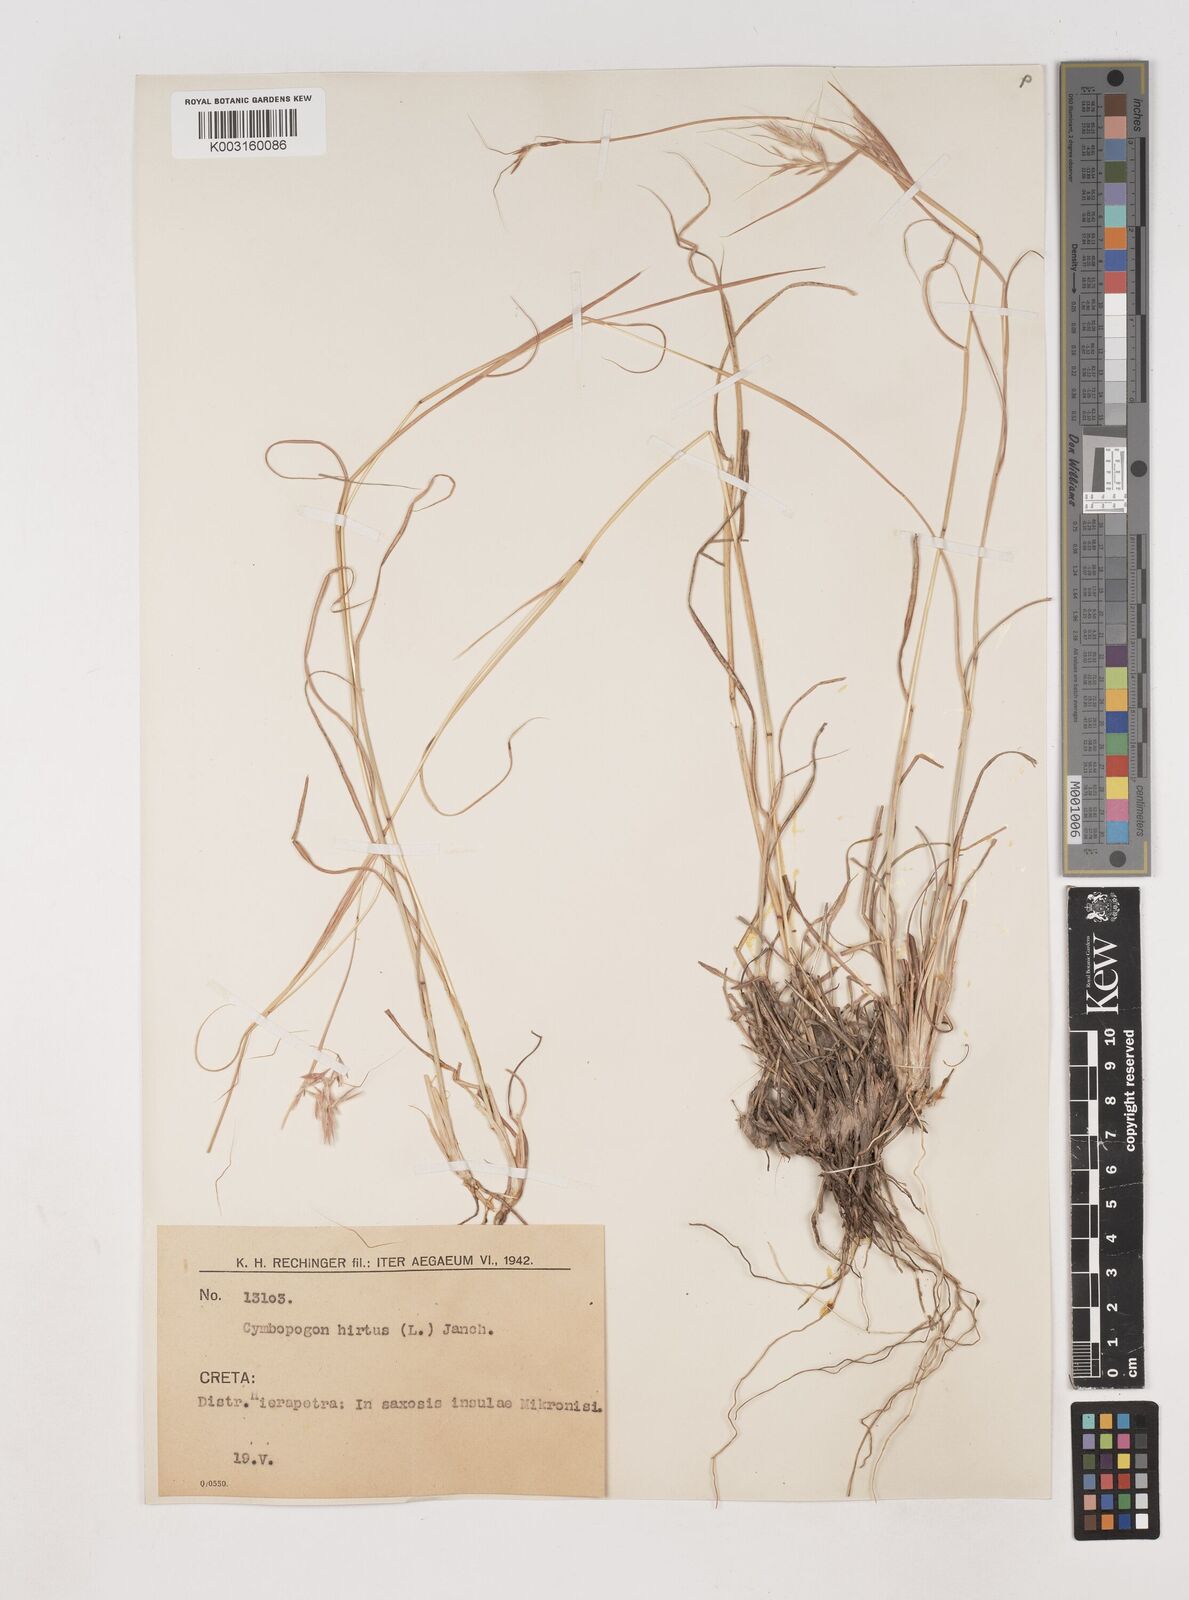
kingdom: Plantae
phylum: Tracheophyta
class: Liliopsida
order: Poales
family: Poaceae
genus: Hyparrhenia
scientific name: Hyparrhenia hirta
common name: Thatching grass
